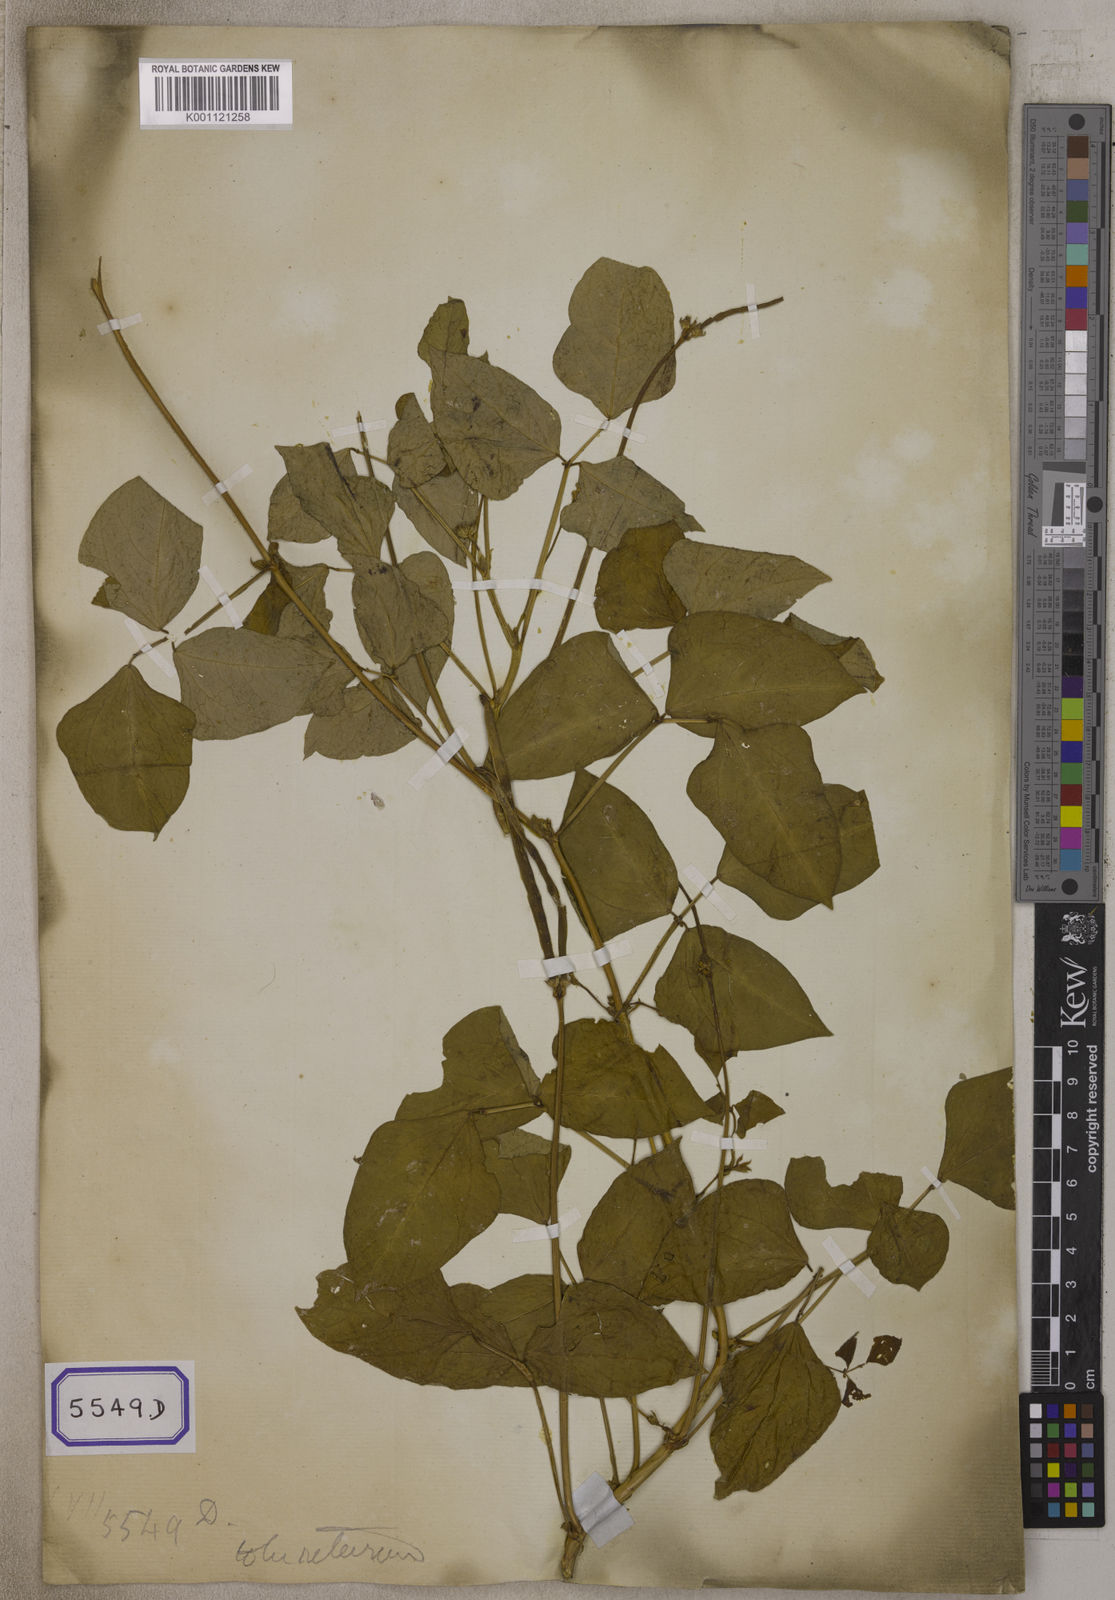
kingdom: Plantae
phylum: Tracheophyta
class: Magnoliopsida
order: Fabales
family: Fabaceae
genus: Vigna
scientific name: Vigna unguiculata
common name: Cowpea
